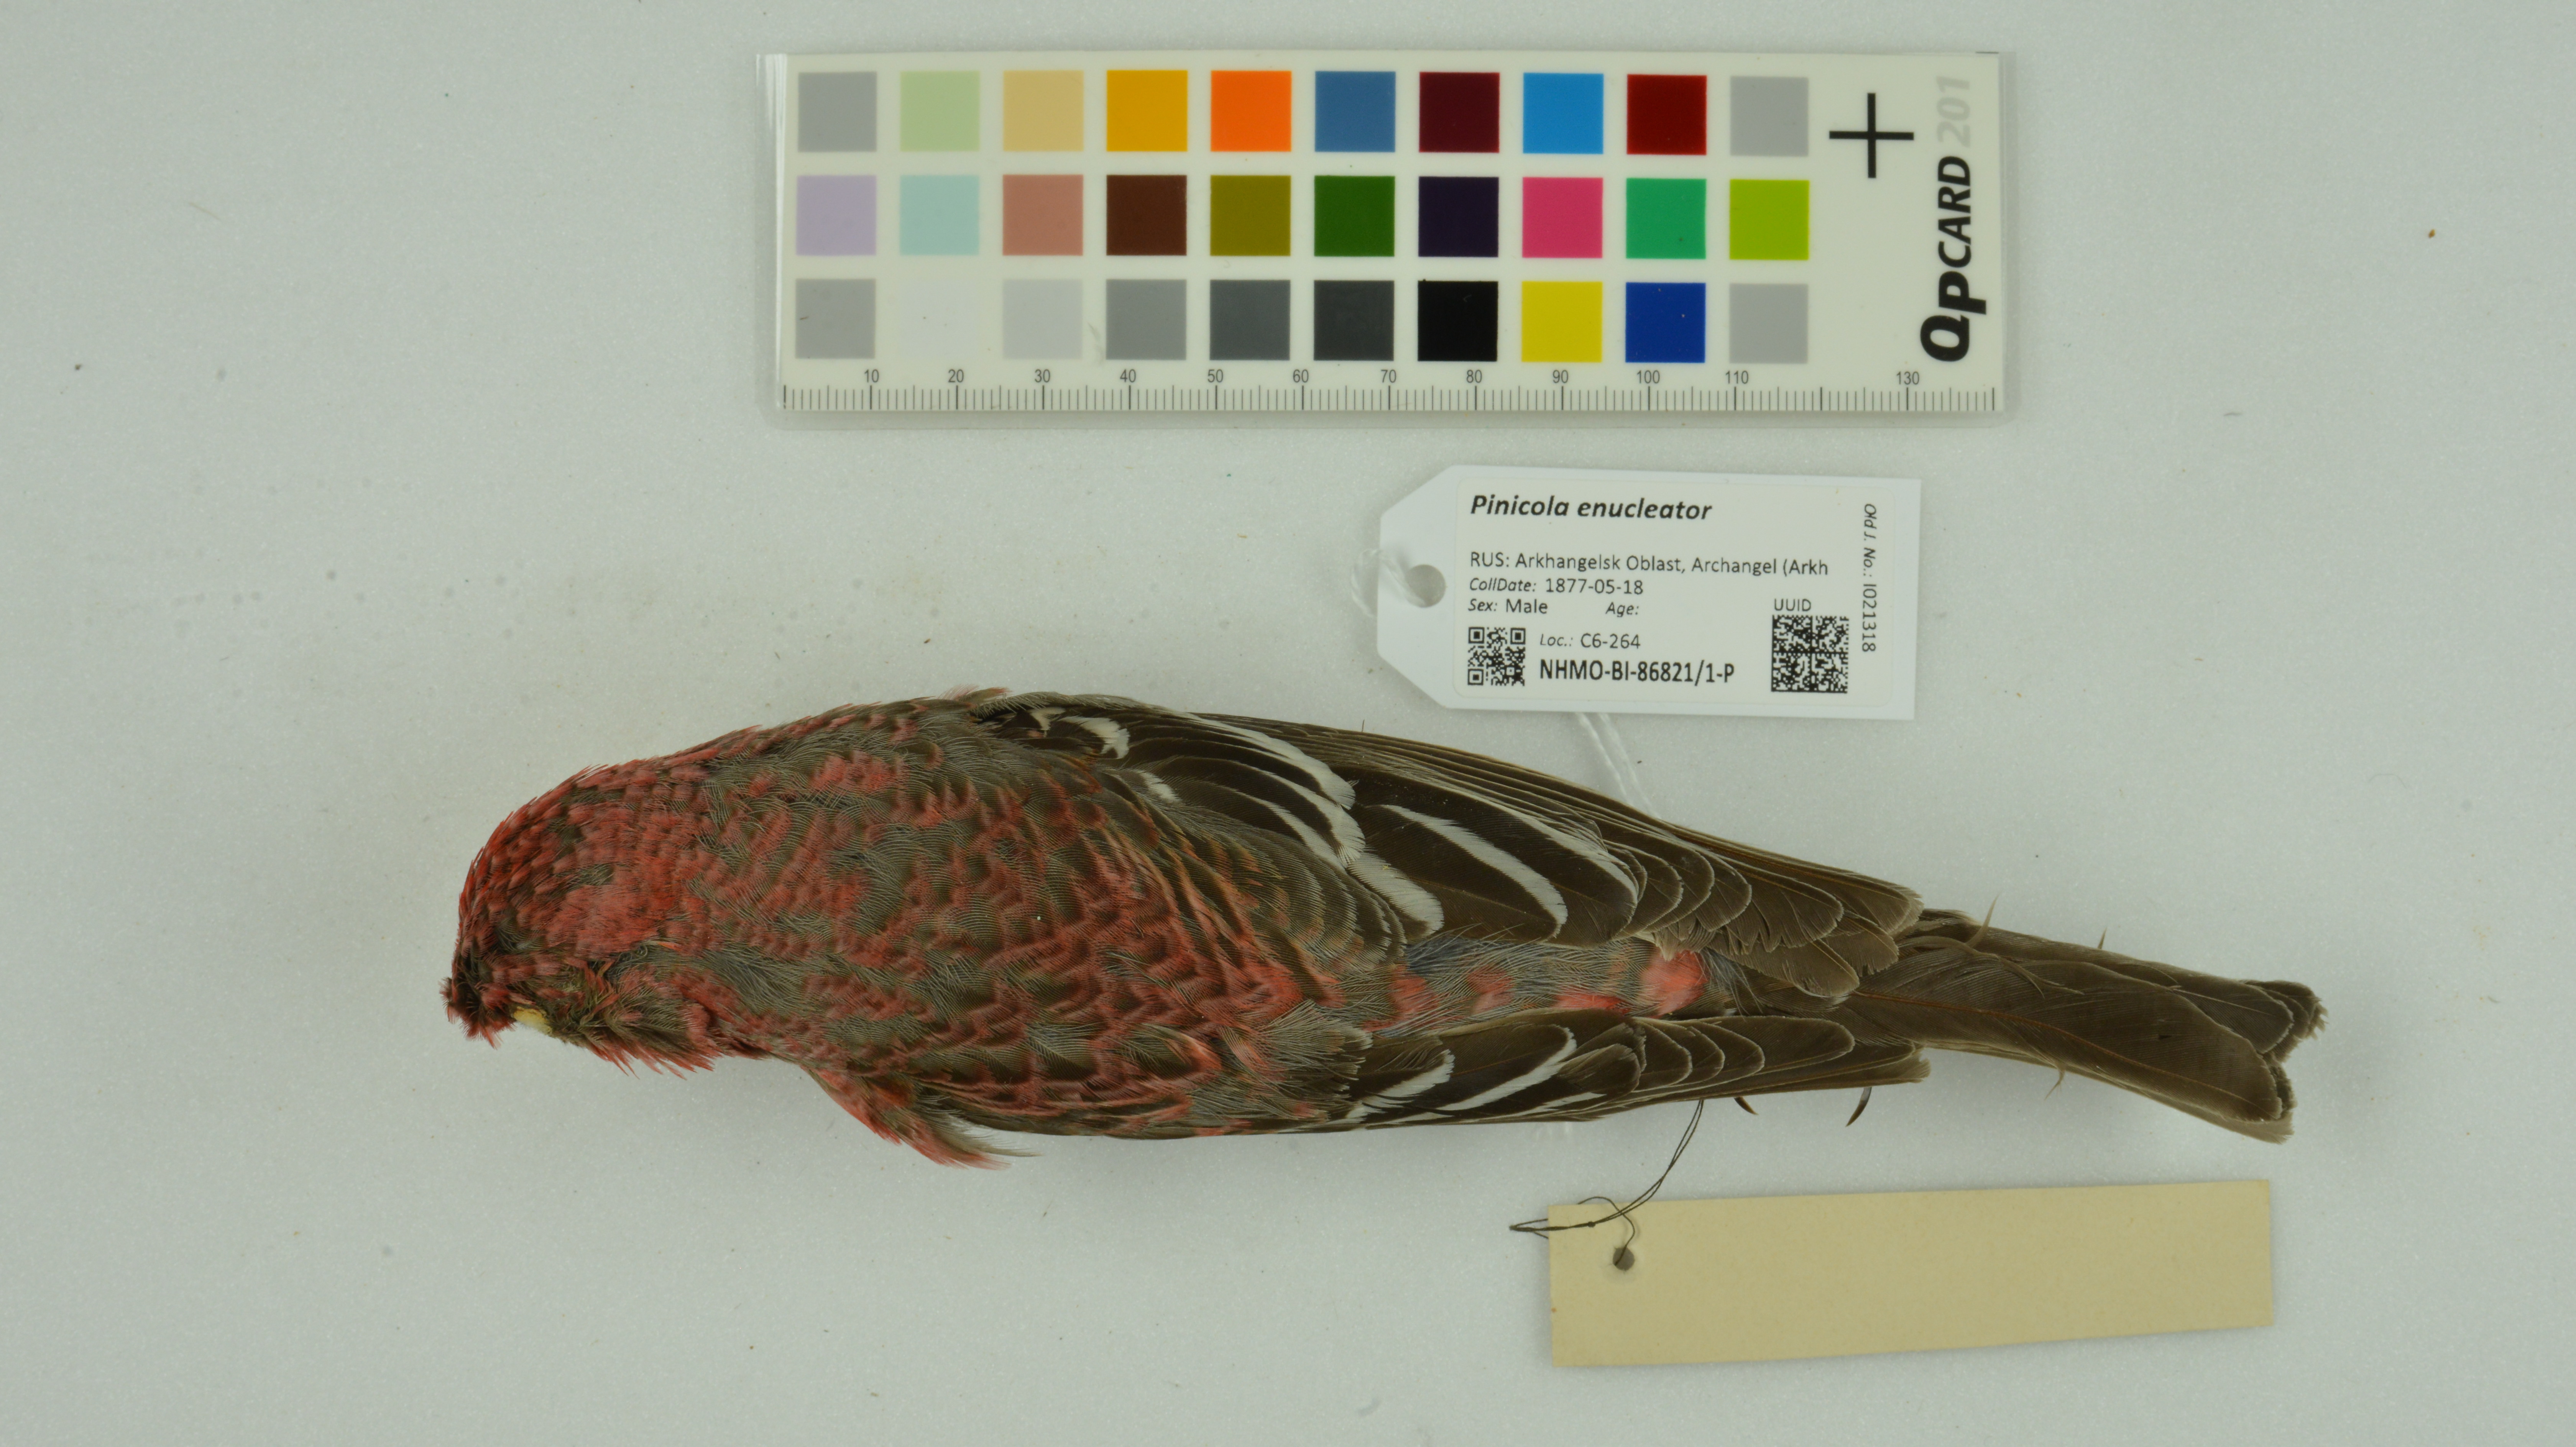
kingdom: Animalia
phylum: Chordata
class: Aves
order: Passeriformes
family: Fringillidae
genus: Pinicola
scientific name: Pinicola enucleator
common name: Pine grosbeak
